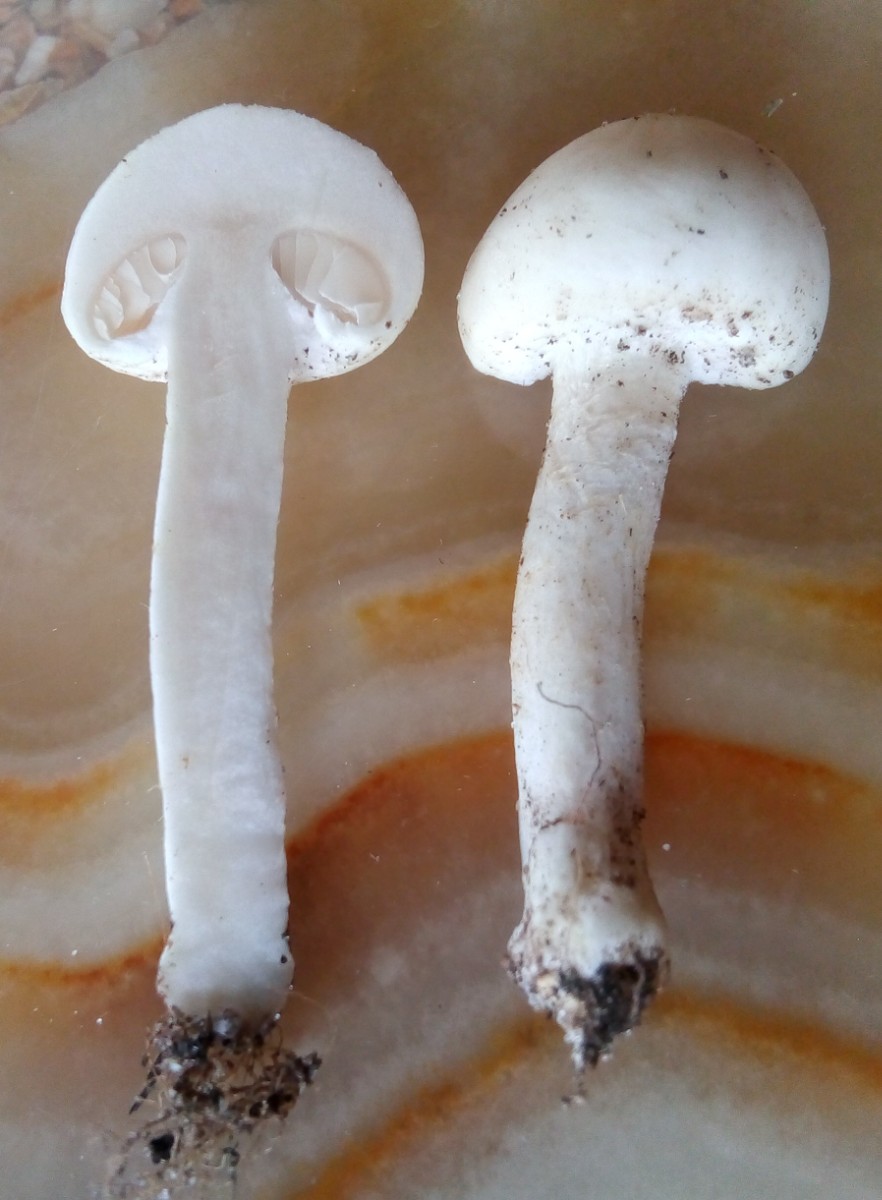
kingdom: Fungi
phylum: Basidiomycota
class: Agaricomycetes
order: Agaricales
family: Strophariaceae
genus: Agrocybe
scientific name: Agrocybe dura
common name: fastkødet agerhat
